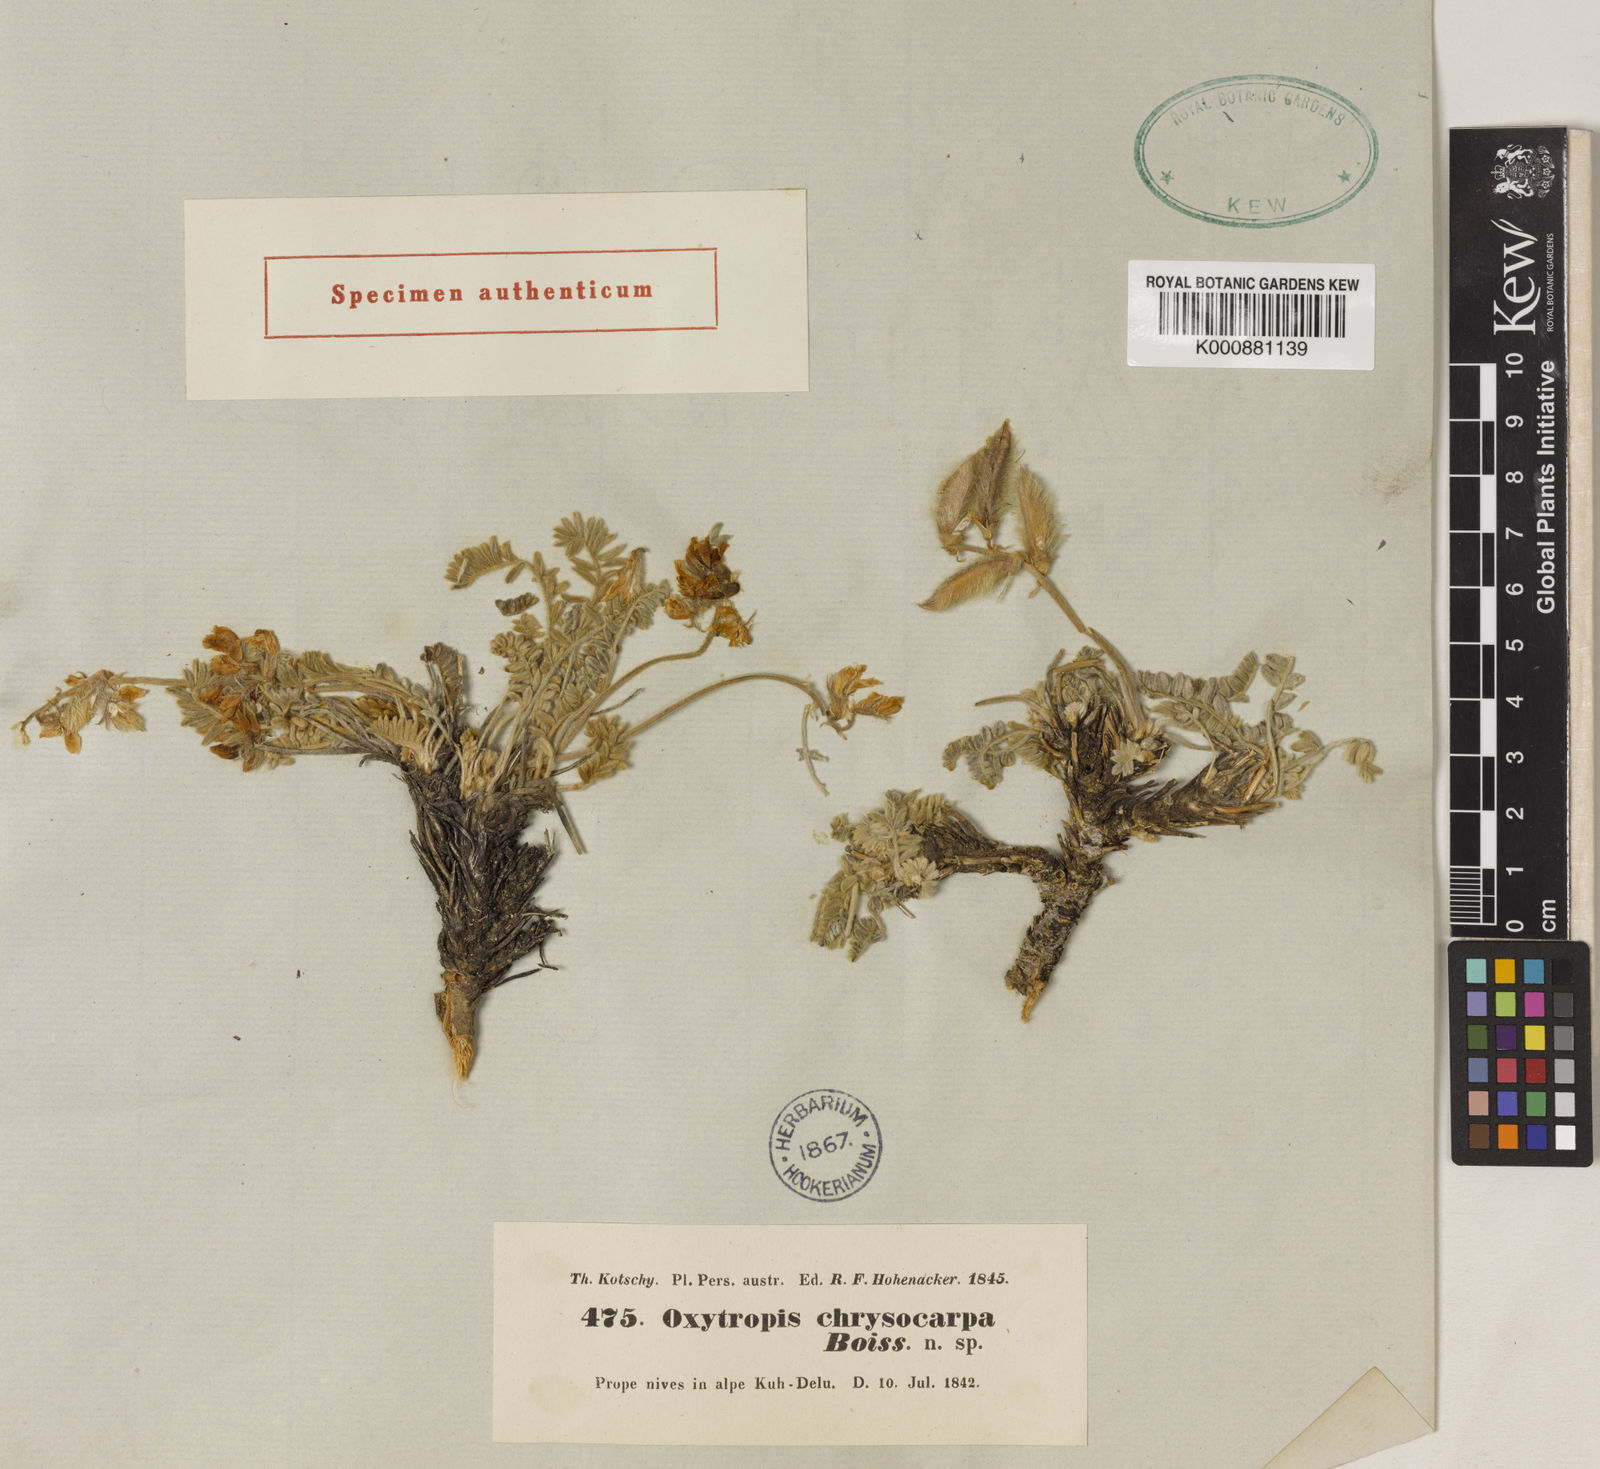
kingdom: Plantae
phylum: Tracheophyta
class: Magnoliopsida
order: Fabales
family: Fabaceae
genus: Oxytropis
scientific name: Oxytropis chrysocarpa
